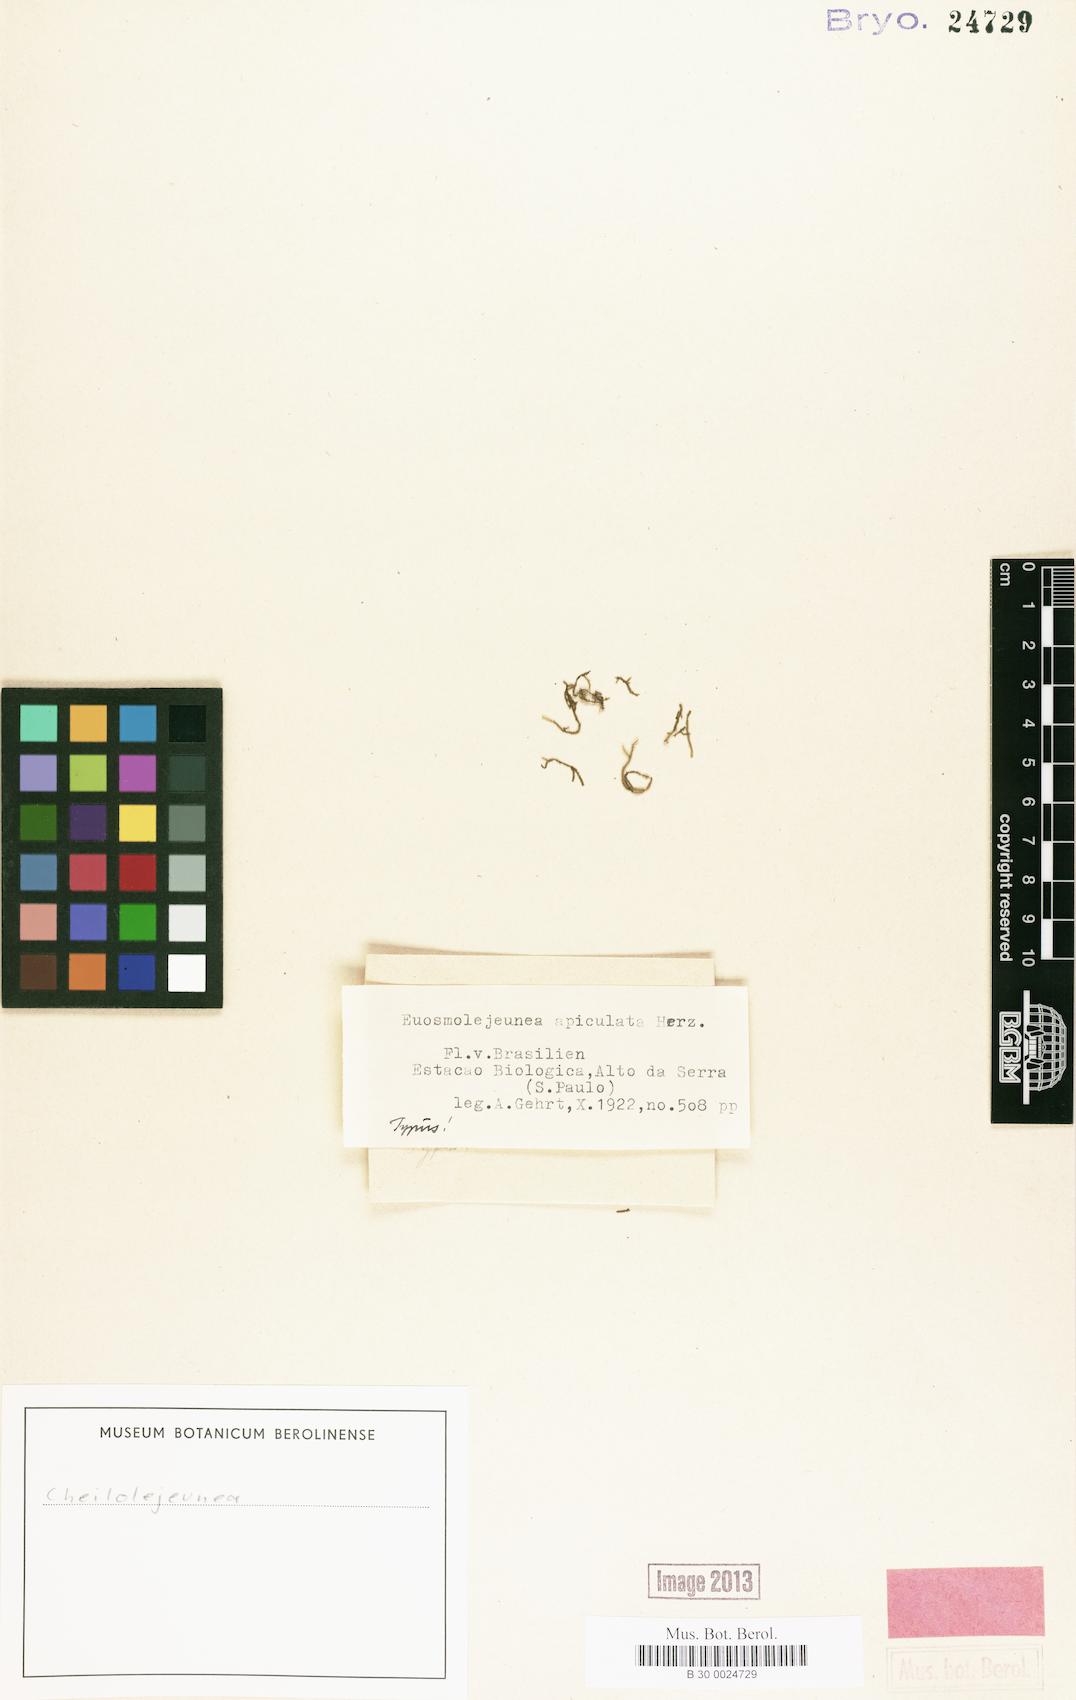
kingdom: Plantae
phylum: Marchantiophyta
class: Jungermanniopsida
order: Porellales
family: Lejeuneaceae
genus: Cheilolejeunea
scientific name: Cheilolejeunea
